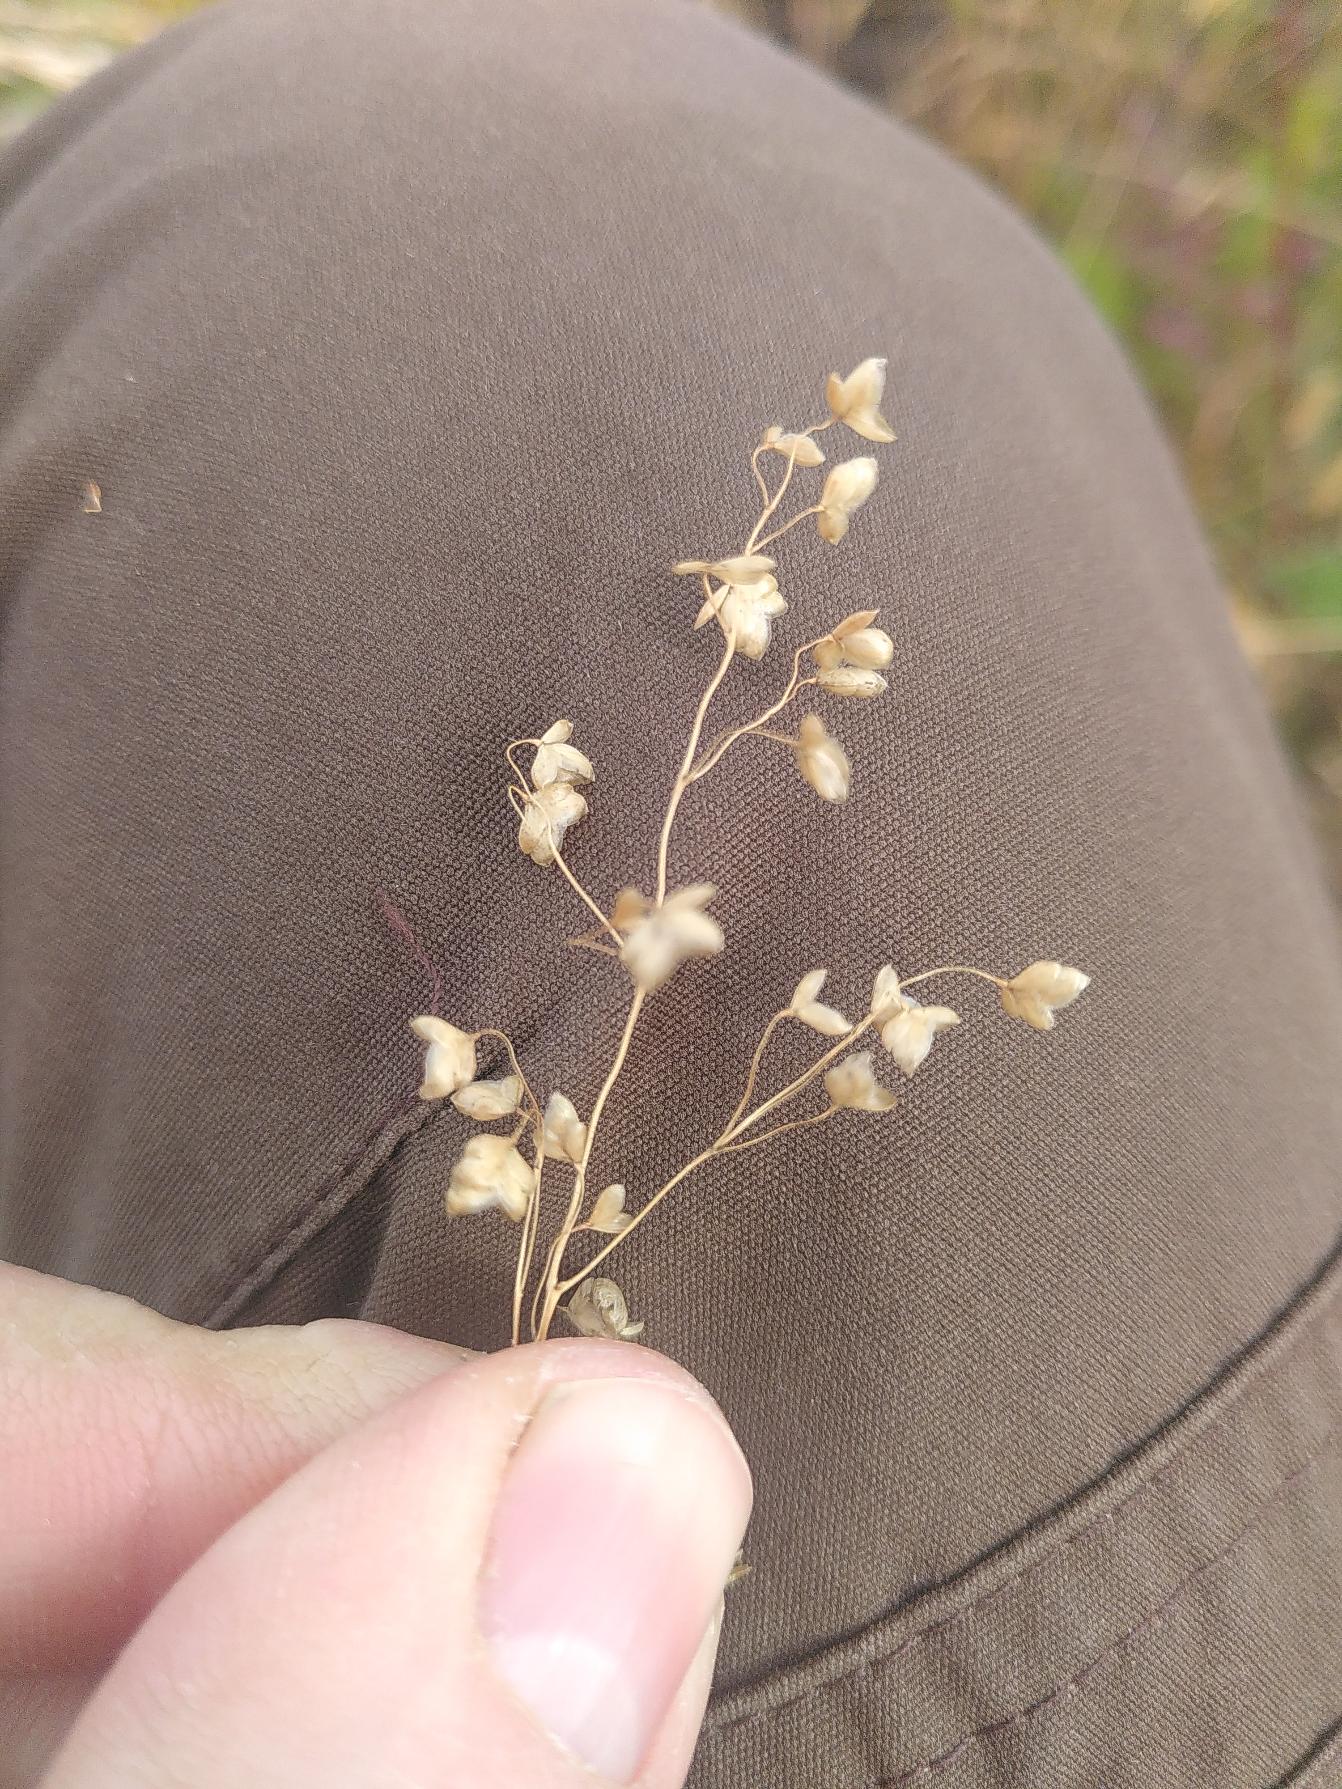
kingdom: Plantae
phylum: Tracheophyta
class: Liliopsida
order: Poales
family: Poaceae
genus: Briza
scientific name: Briza media
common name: Hjertegræs
